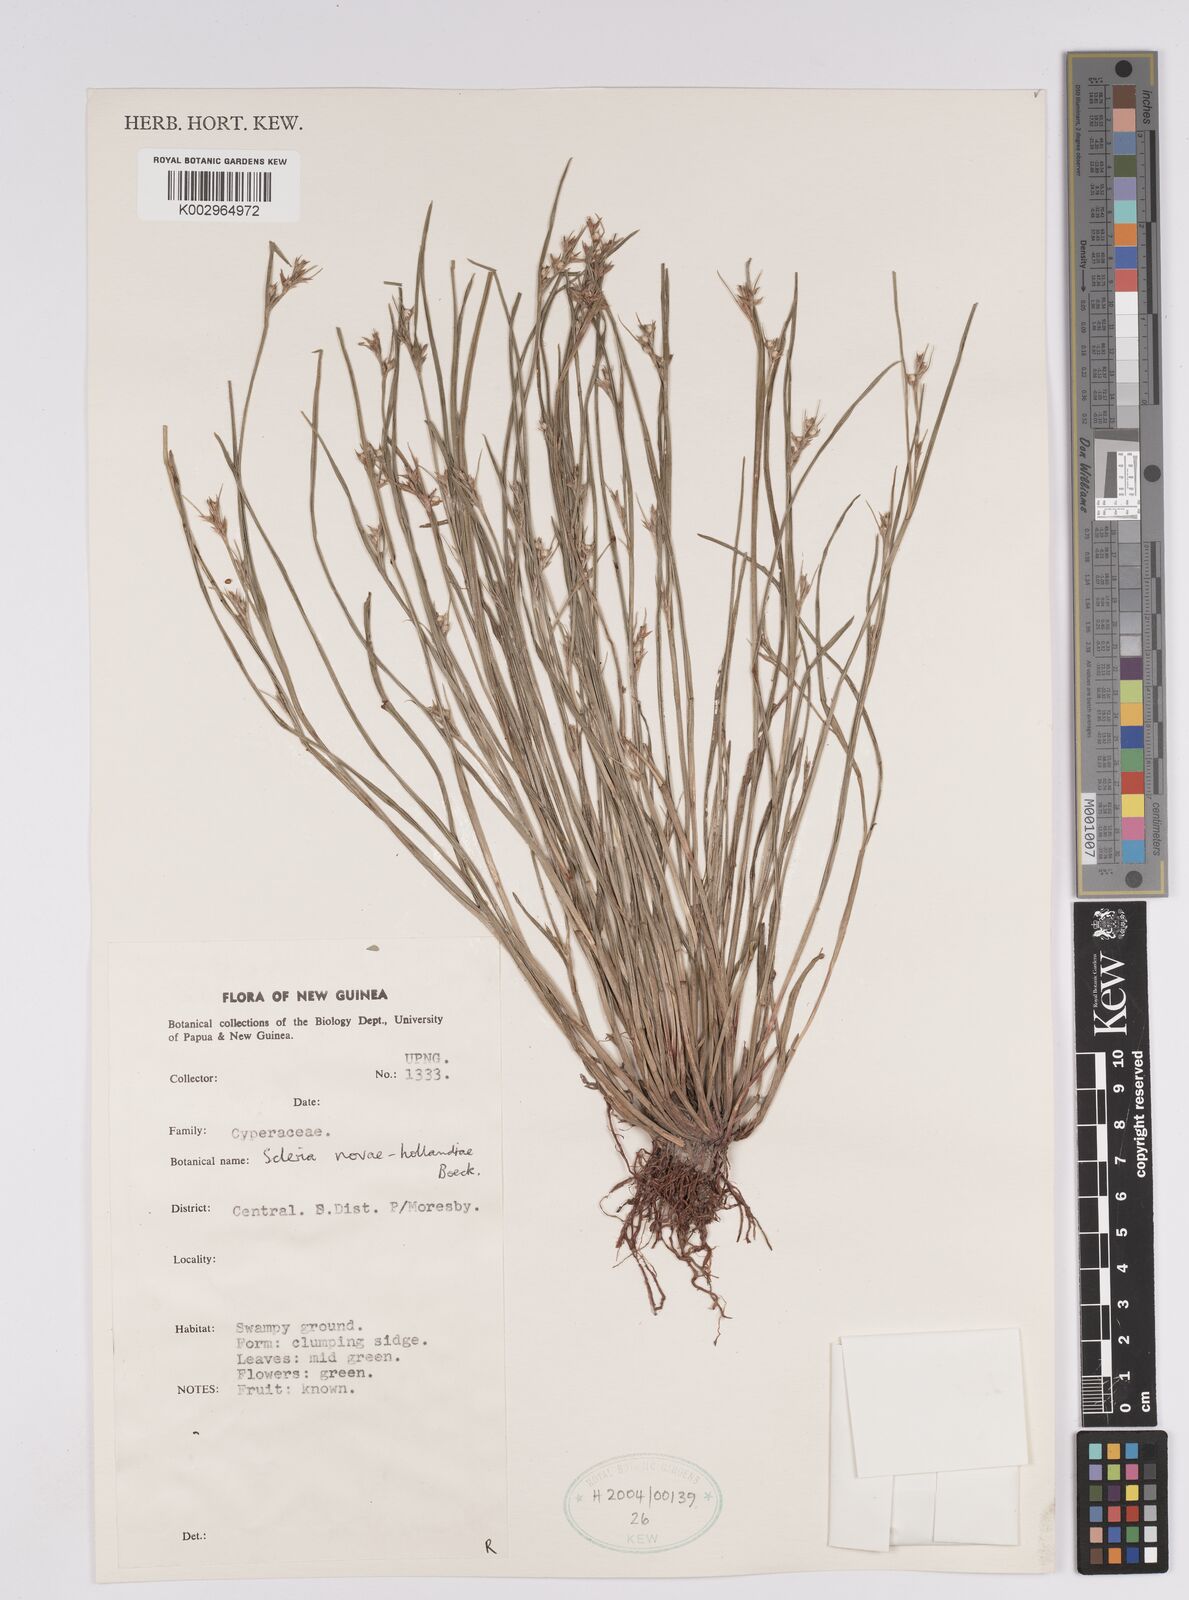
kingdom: Plantae
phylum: Tracheophyta
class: Liliopsida
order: Poales
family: Cyperaceae
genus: Scleria
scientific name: Scleria novae-hollandiae
